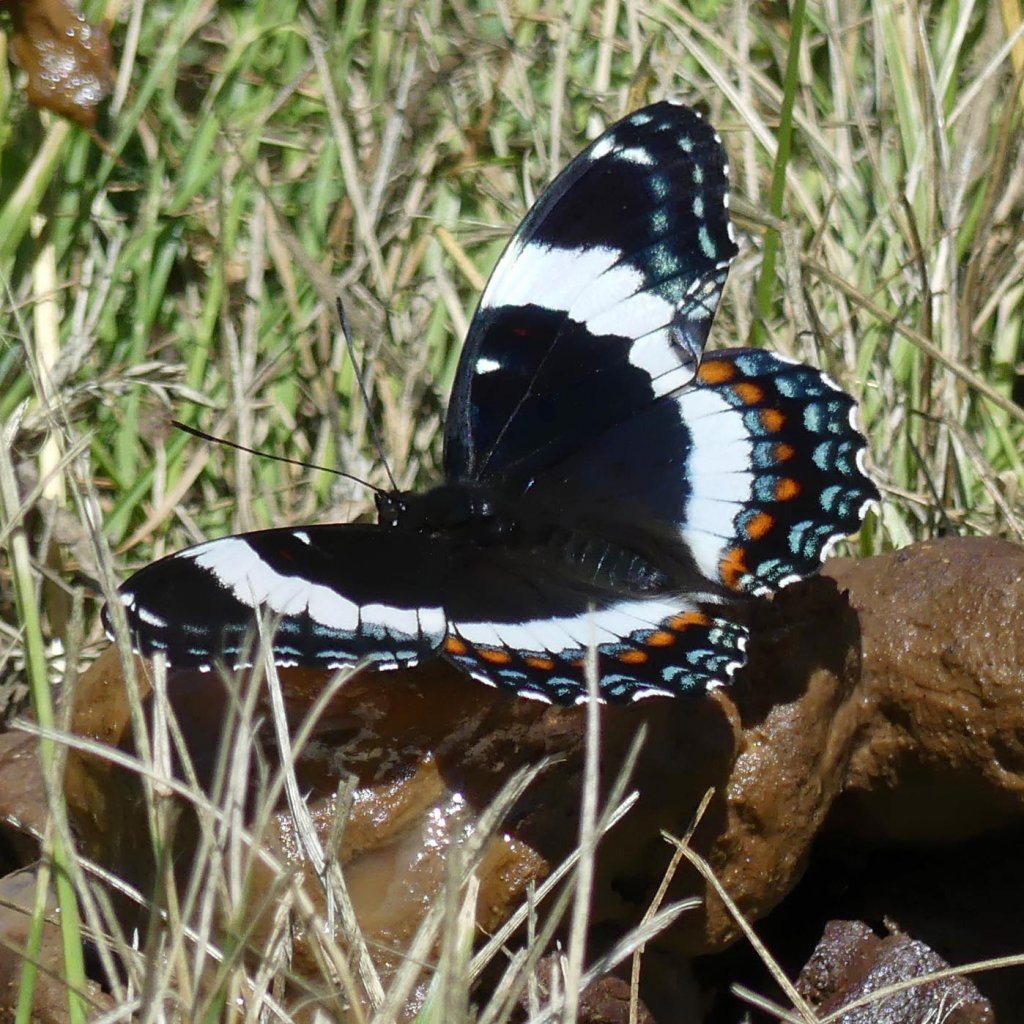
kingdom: Animalia
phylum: Arthropoda
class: Insecta
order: Lepidoptera
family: Nymphalidae
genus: Limenitis
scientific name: Limenitis arthemis
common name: Red-spotted Admiral
